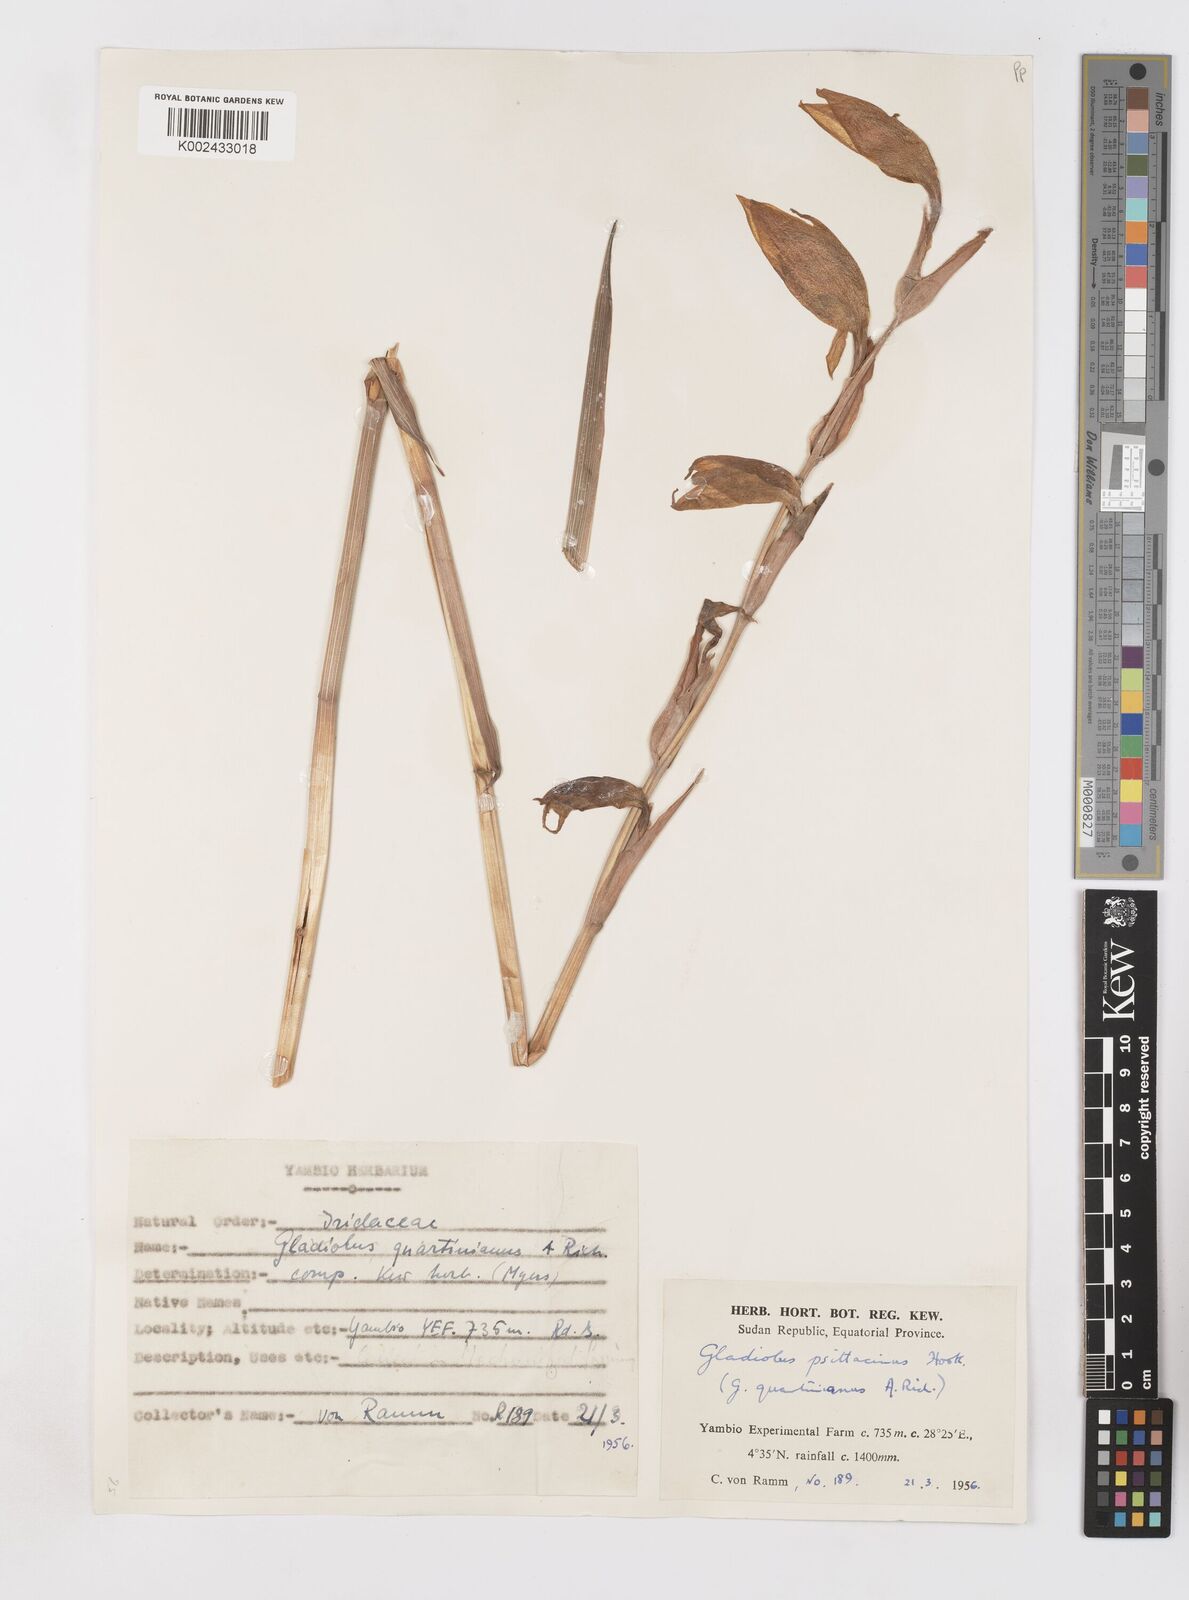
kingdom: Plantae
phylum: Tracheophyta
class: Liliopsida
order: Asparagales
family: Iridaceae
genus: Gladiolus
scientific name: Gladiolus dalenii
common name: Cornflag
